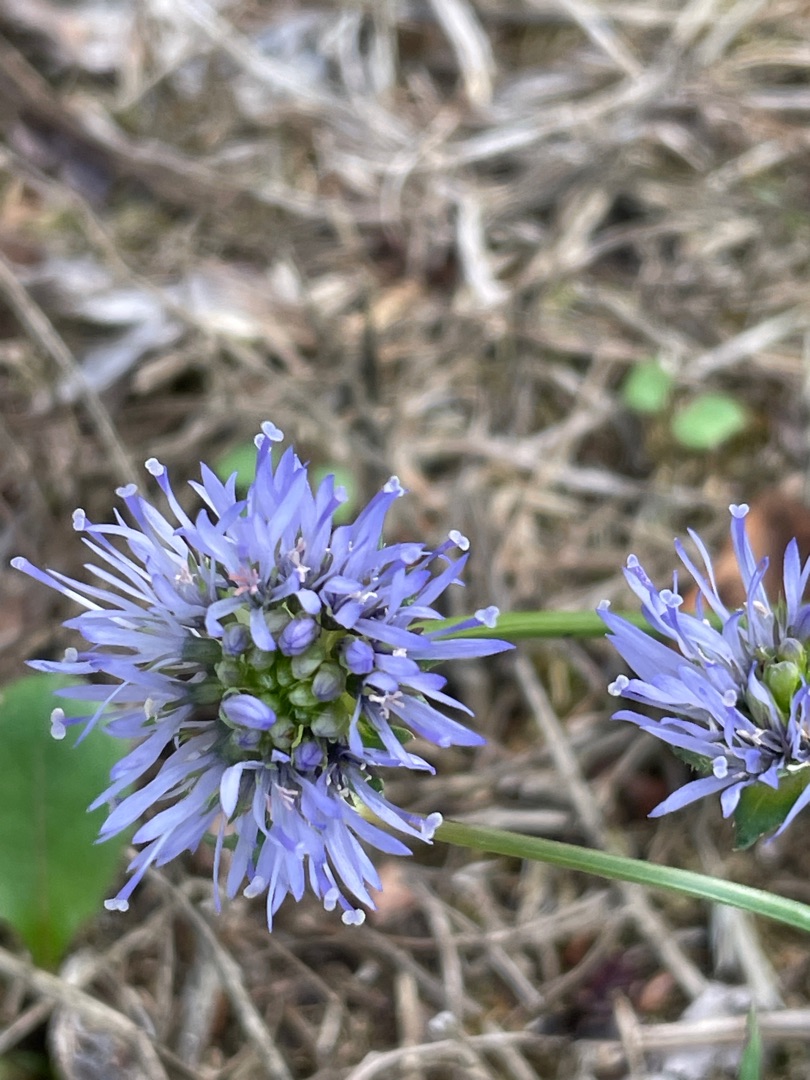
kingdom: Plantae
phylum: Tracheophyta
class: Magnoliopsida
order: Asterales
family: Campanulaceae
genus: Jasione
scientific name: Jasione montana
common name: Blåmunke
